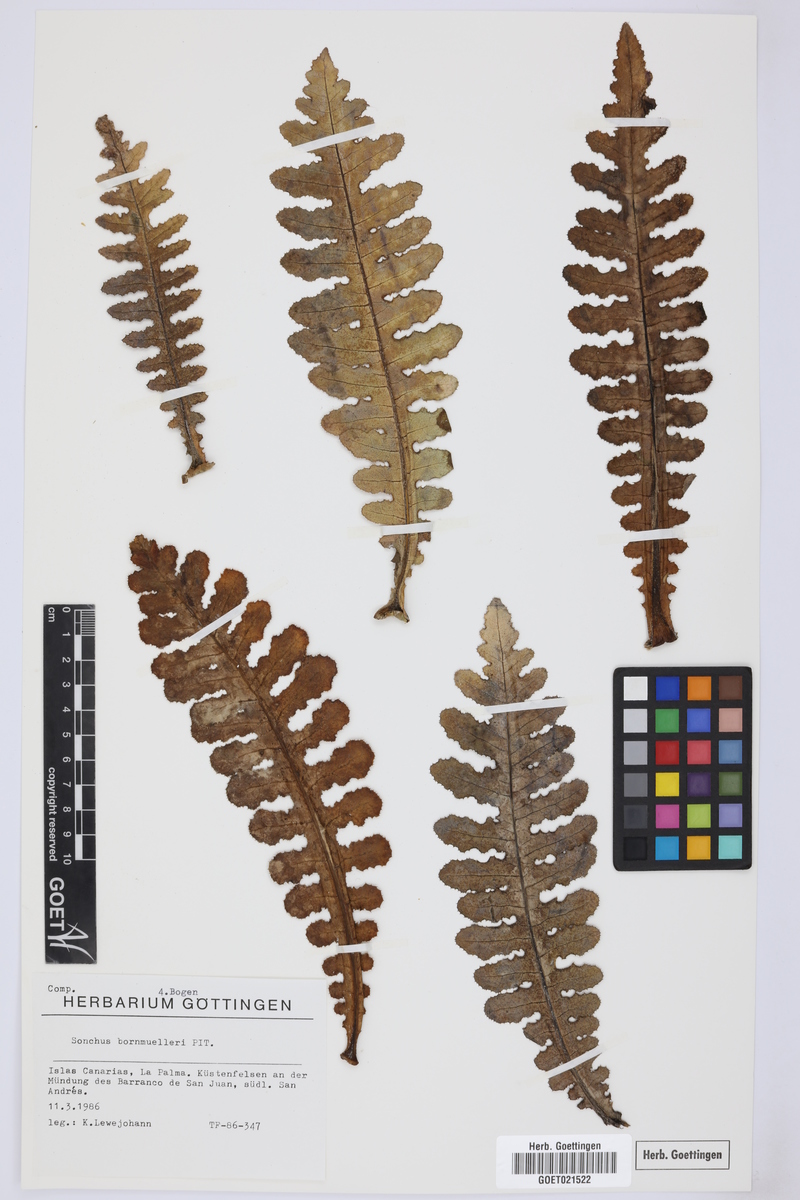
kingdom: Plantae
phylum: Tracheophyta
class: Magnoliopsida
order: Asterales
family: Asteraceae
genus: Sonchus
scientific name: Sonchus bornmuelleri
